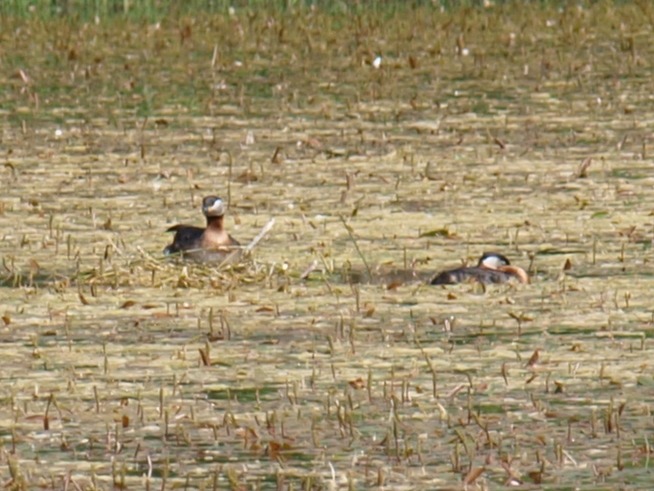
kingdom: Animalia
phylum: Chordata
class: Aves
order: Podicipediformes
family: Podicipedidae
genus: Podiceps
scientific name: Podiceps grisegena
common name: Gråstrubet lappedykker
